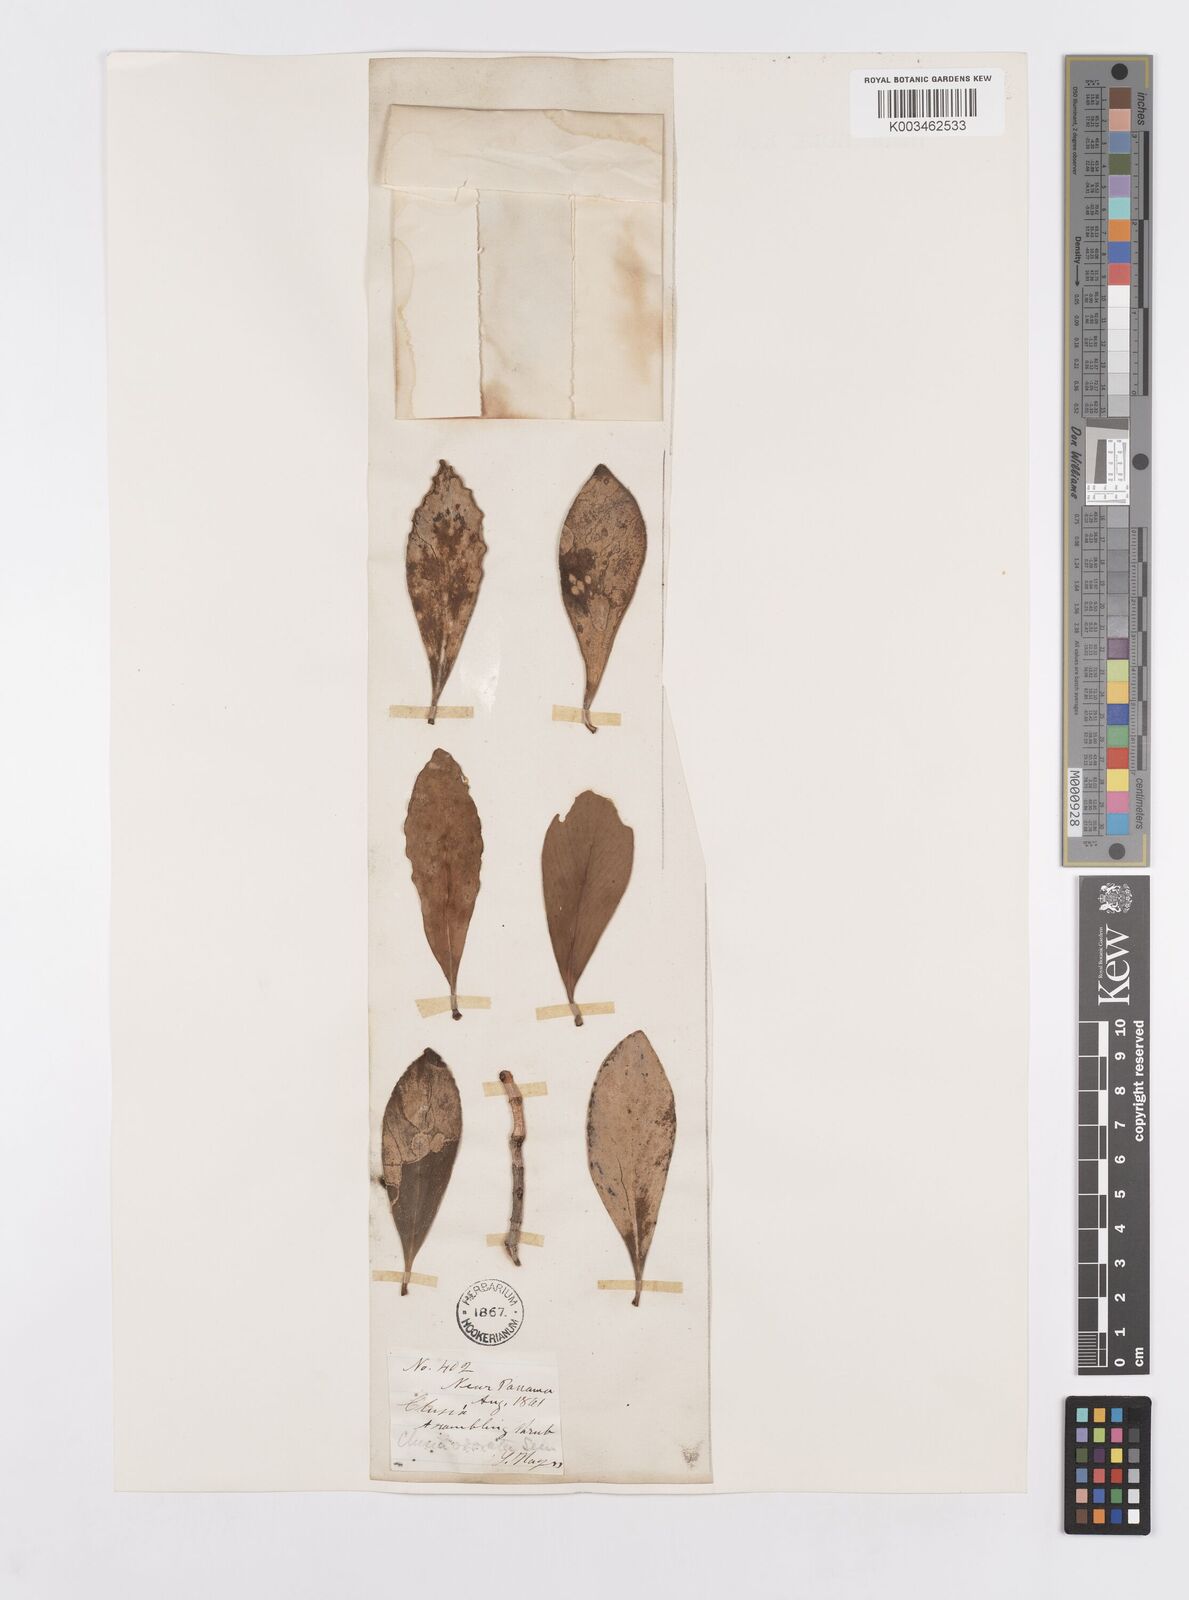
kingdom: Plantae
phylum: Tracheophyta
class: Magnoliopsida
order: Malpighiales
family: Clusiaceae
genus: Clusia
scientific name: Clusia minor
